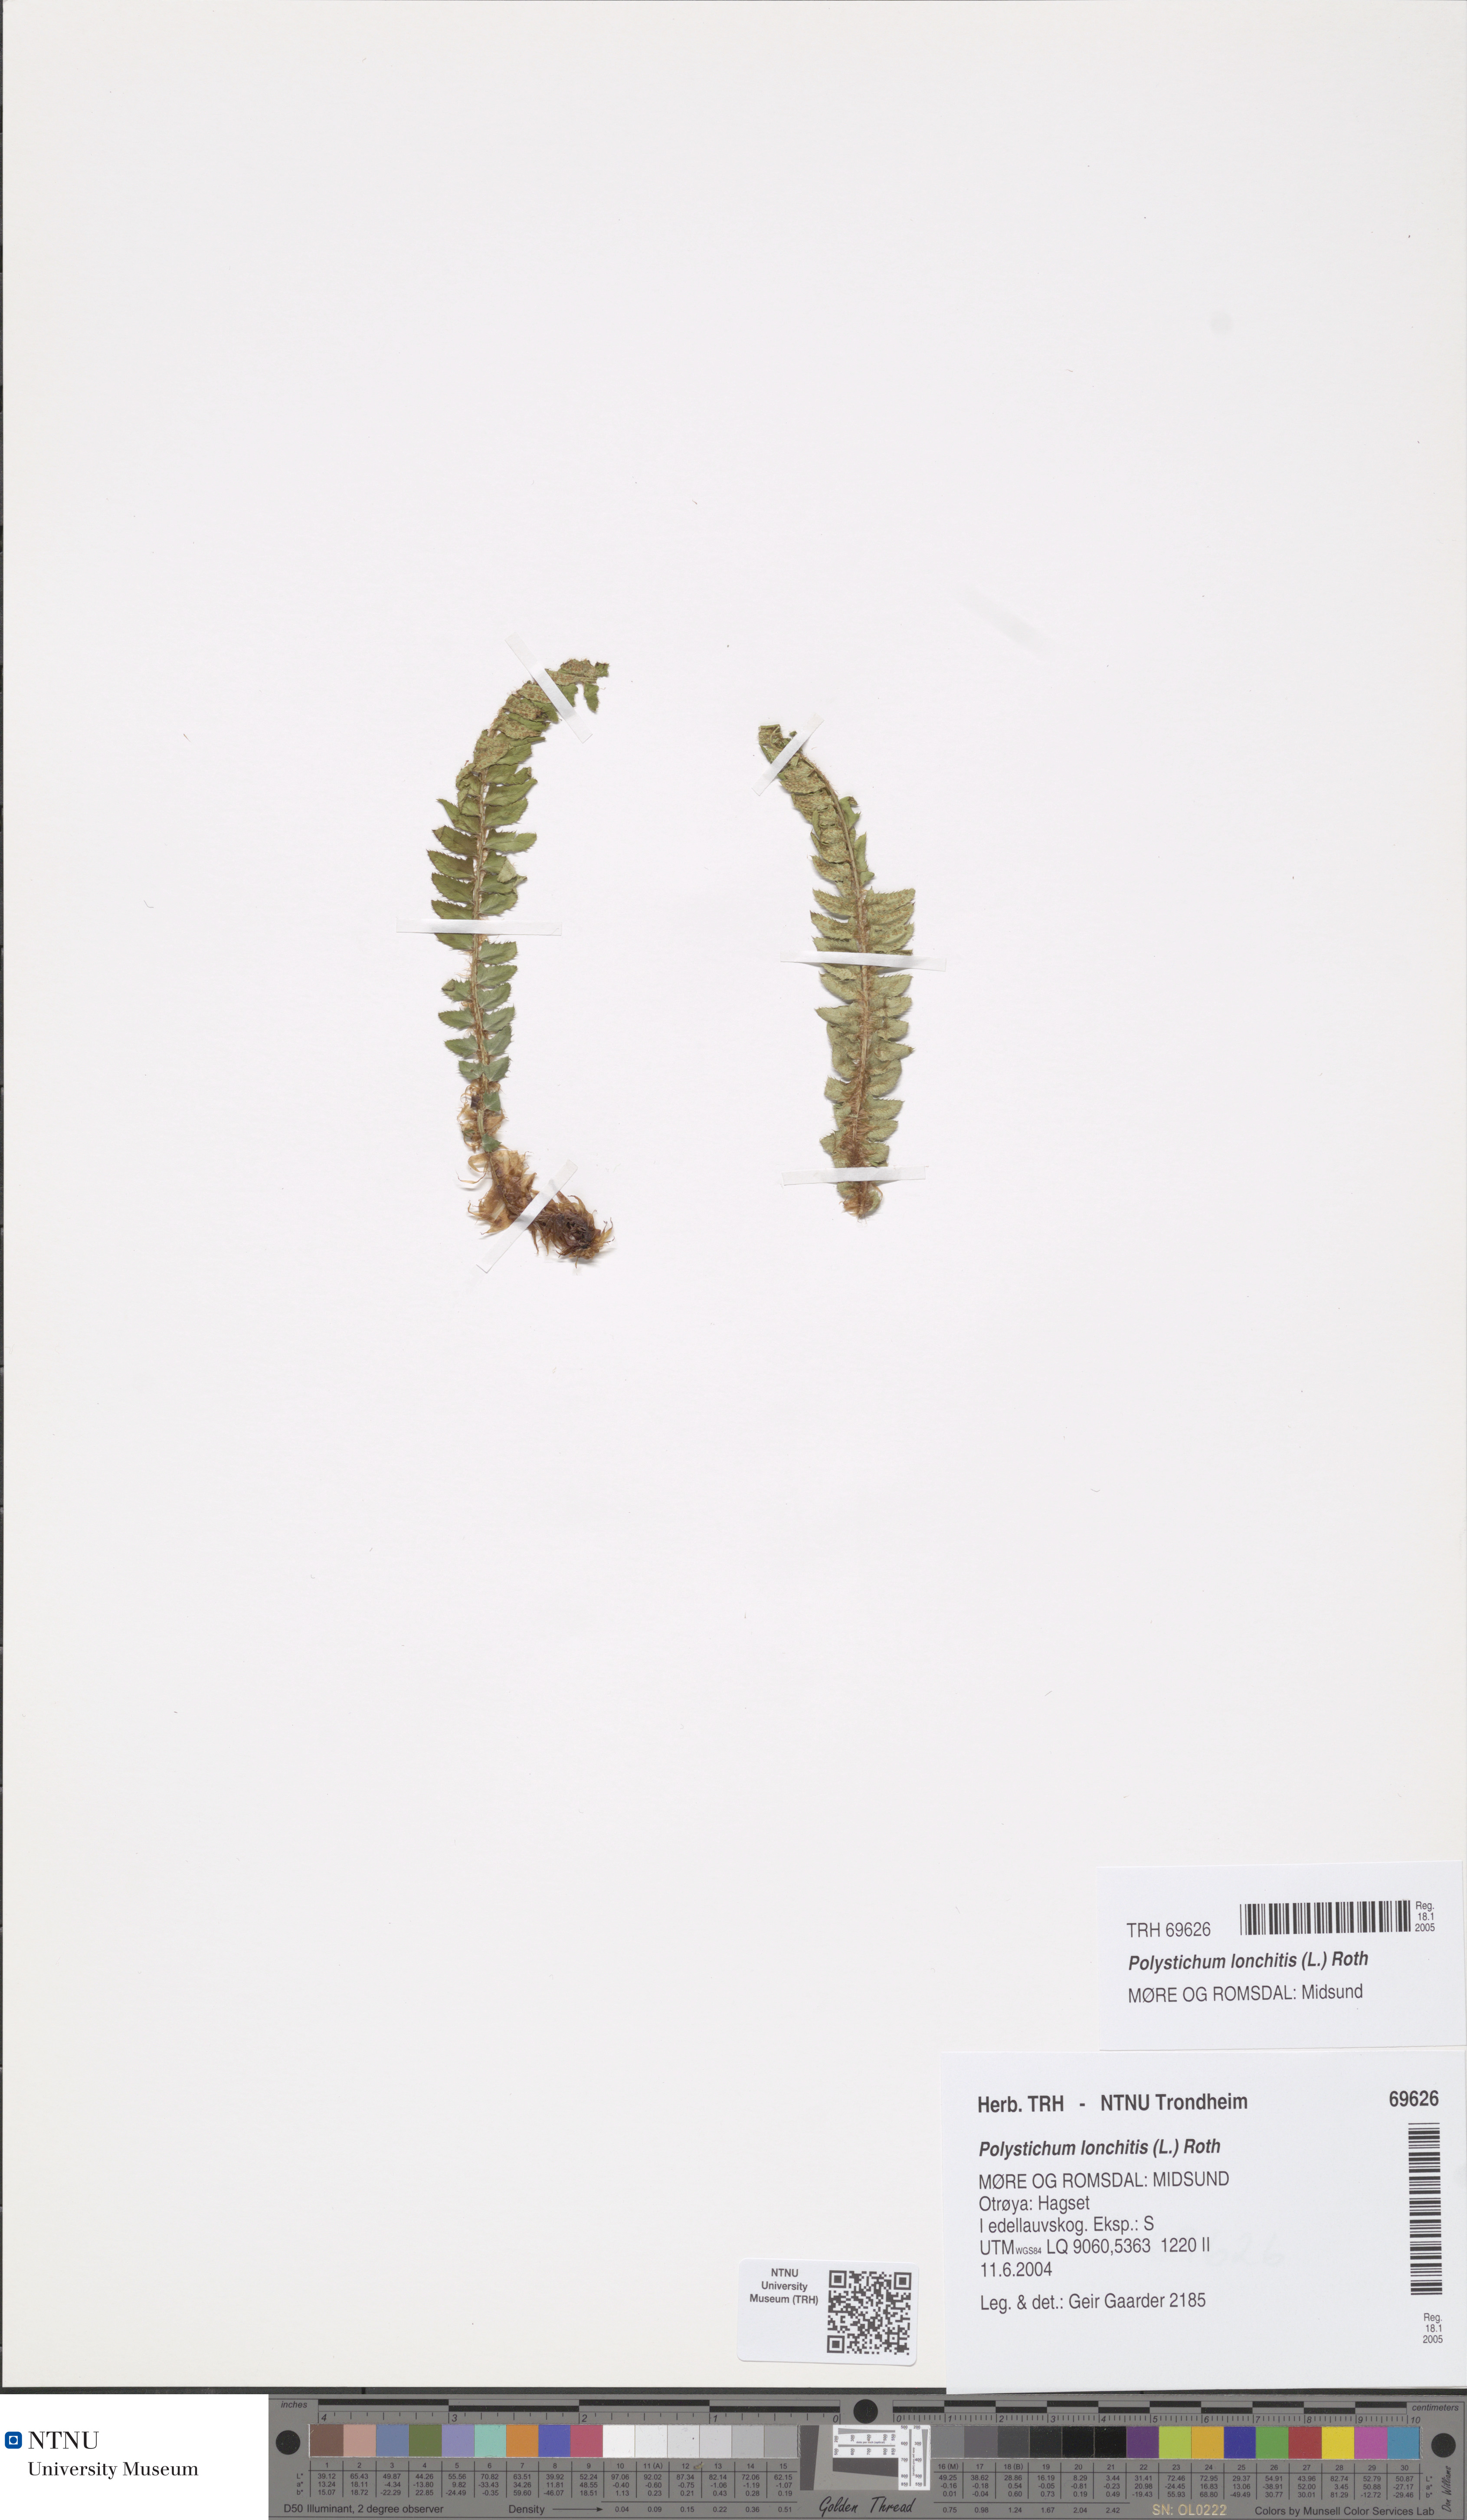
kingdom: Plantae
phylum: Tracheophyta
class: Polypodiopsida
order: Polypodiales
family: Dryopteridaceae
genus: Polystichum
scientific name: Polystichum lonchitis
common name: Holly fern
